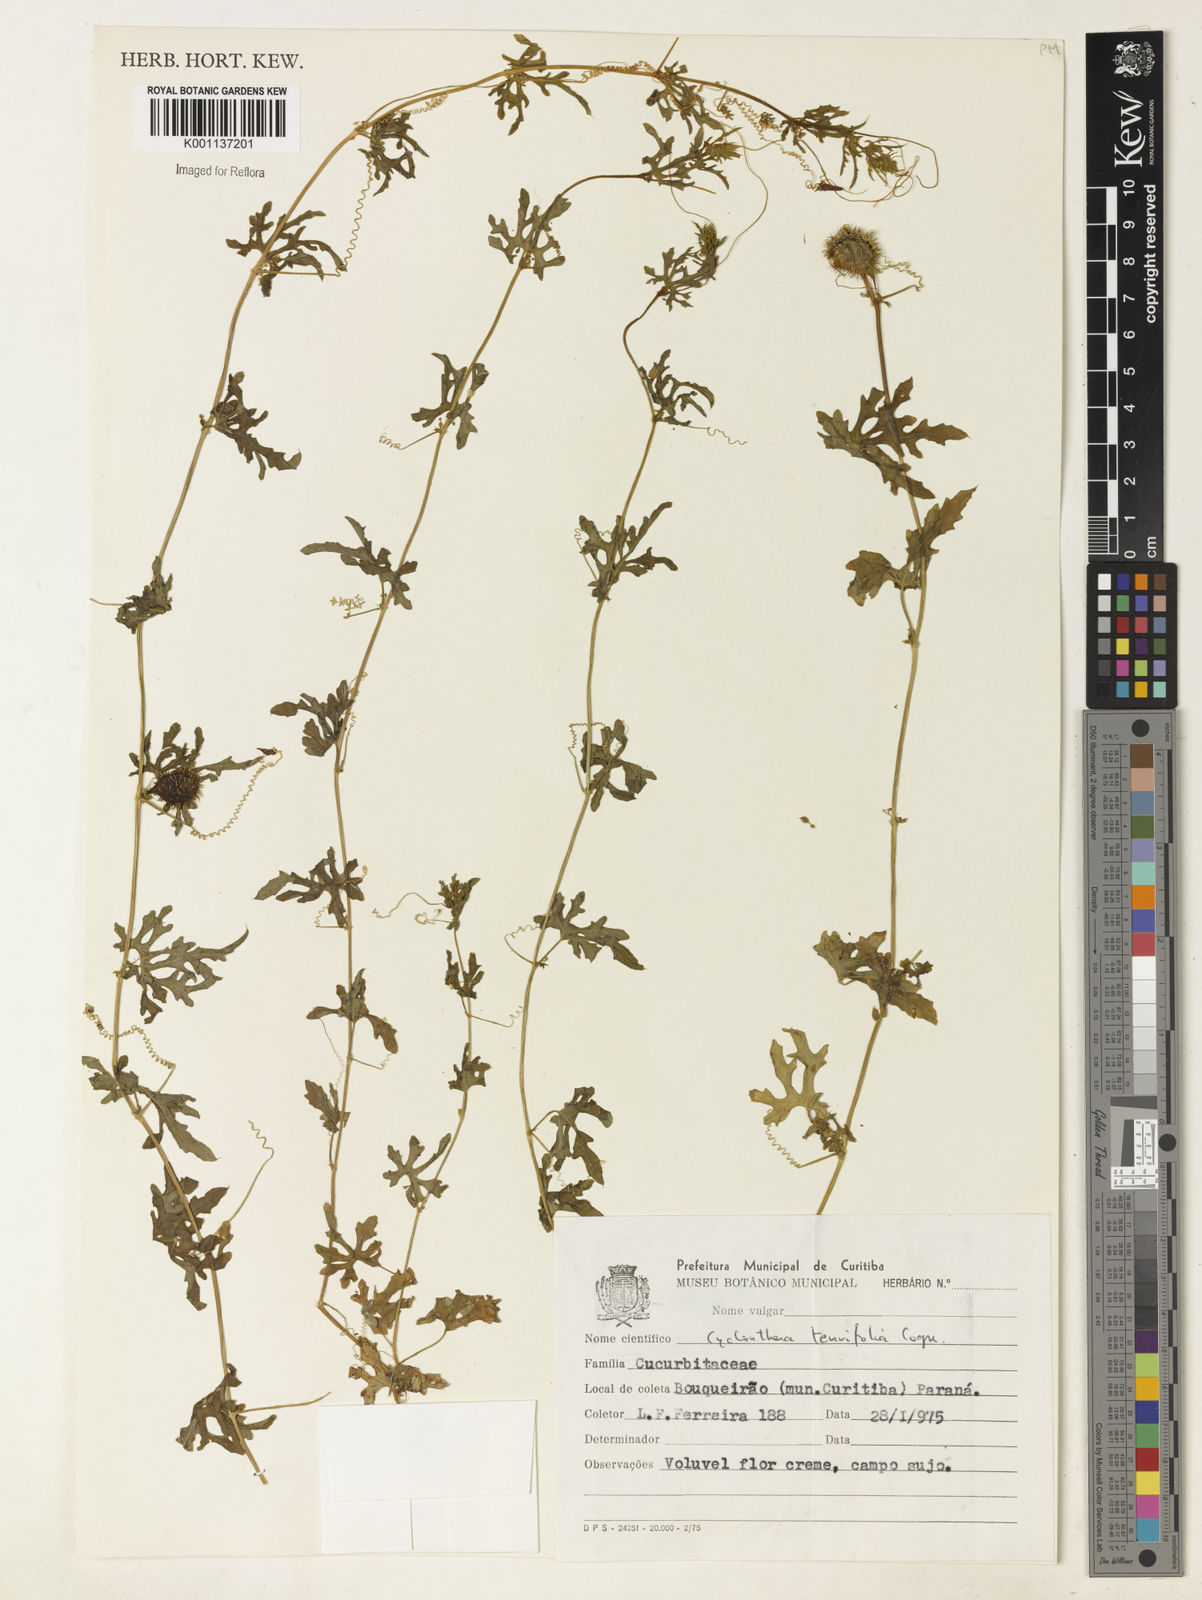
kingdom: Plantae
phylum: Tracheophyta
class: Magnoliopsida
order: Cucurbitales
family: Cucurbitaceae
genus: Cyclanthera
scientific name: Cyclanthera tenuifolia
